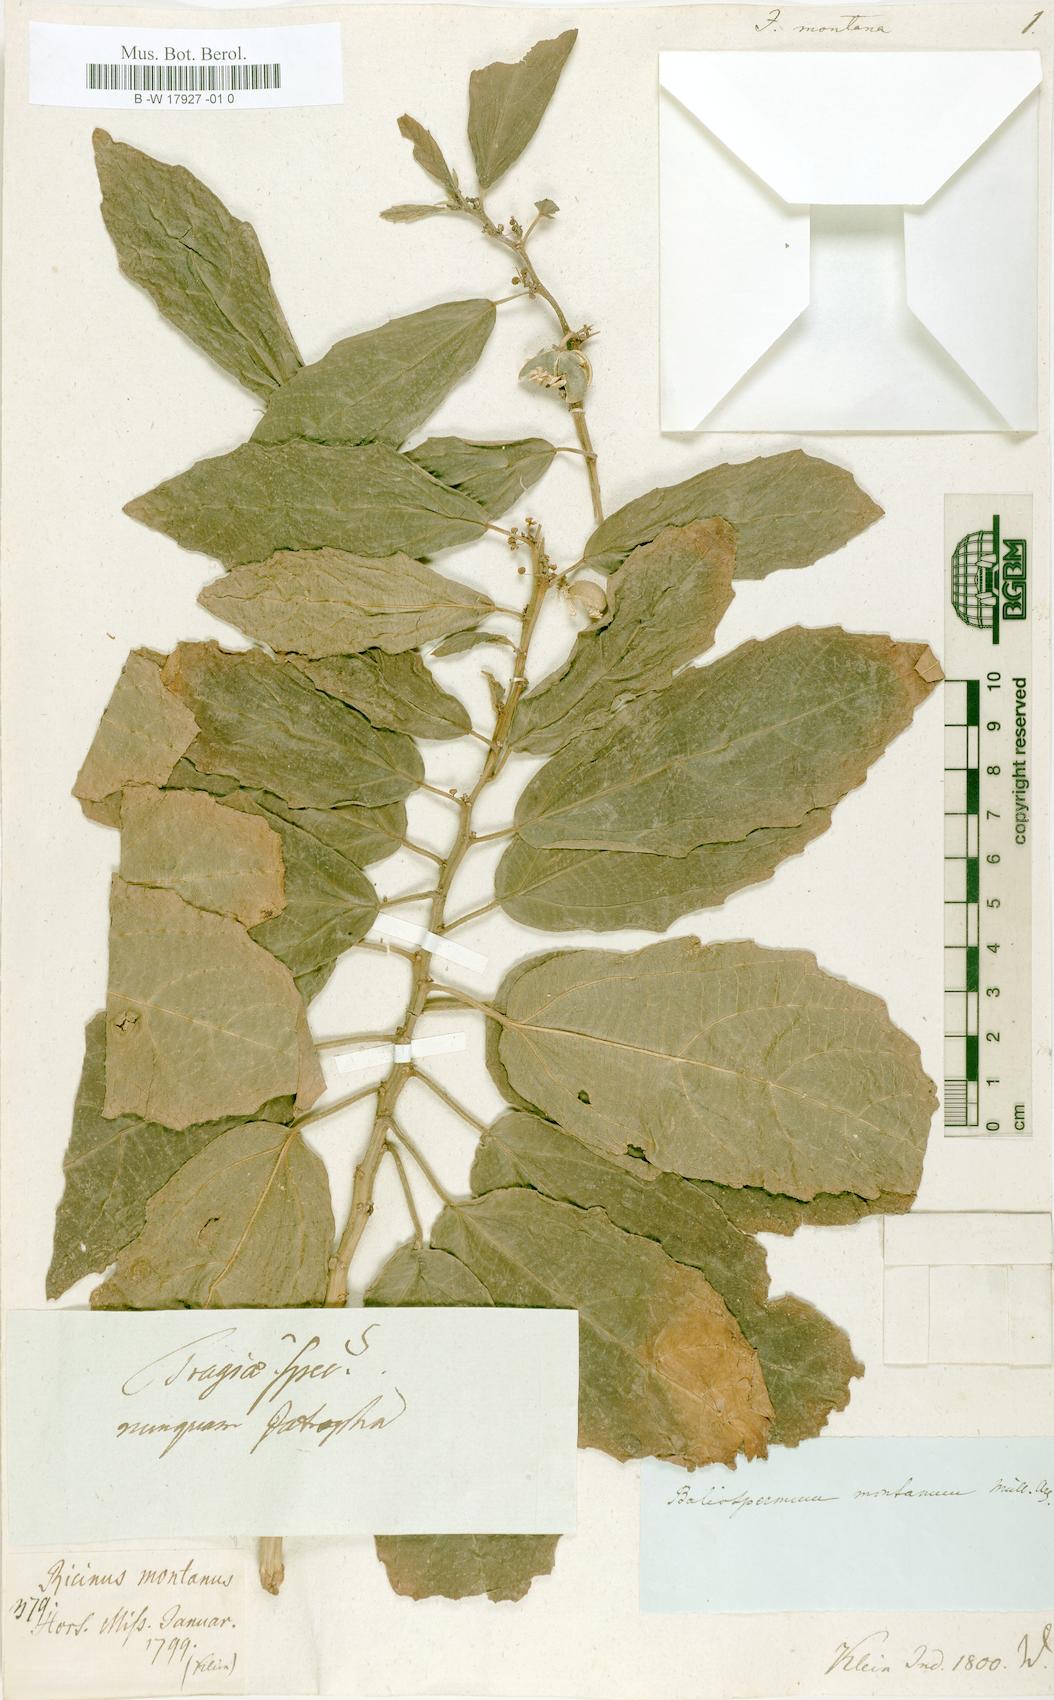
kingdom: Plantae
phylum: Tracheophyta
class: Magnoliopsida
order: Malpighiales
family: Euphorbiaceae
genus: Baliospermum
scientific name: Baliospermum solanifolium
